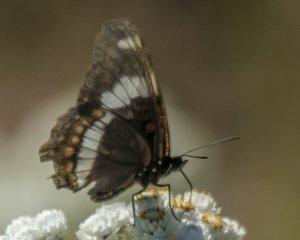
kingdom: Animalia
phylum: Arthropoda
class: Insecta
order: Lepidoptera
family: Nymphalidae
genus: Limenitis
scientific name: Limenitis arthemis
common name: Red-spotted Admiral
